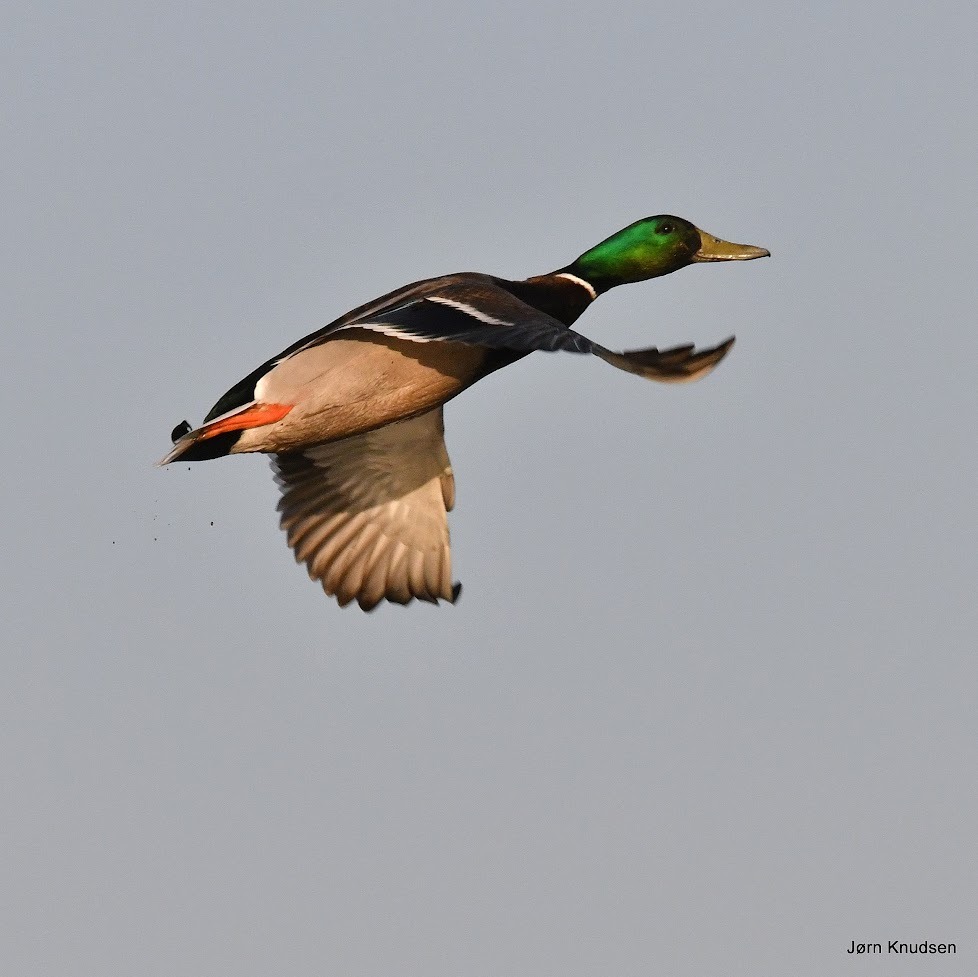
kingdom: Animalia
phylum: Chordata
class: Aves
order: Anseriformes
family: Anatidae
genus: Anas
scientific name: Anas platyrhynchos
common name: Gråand
